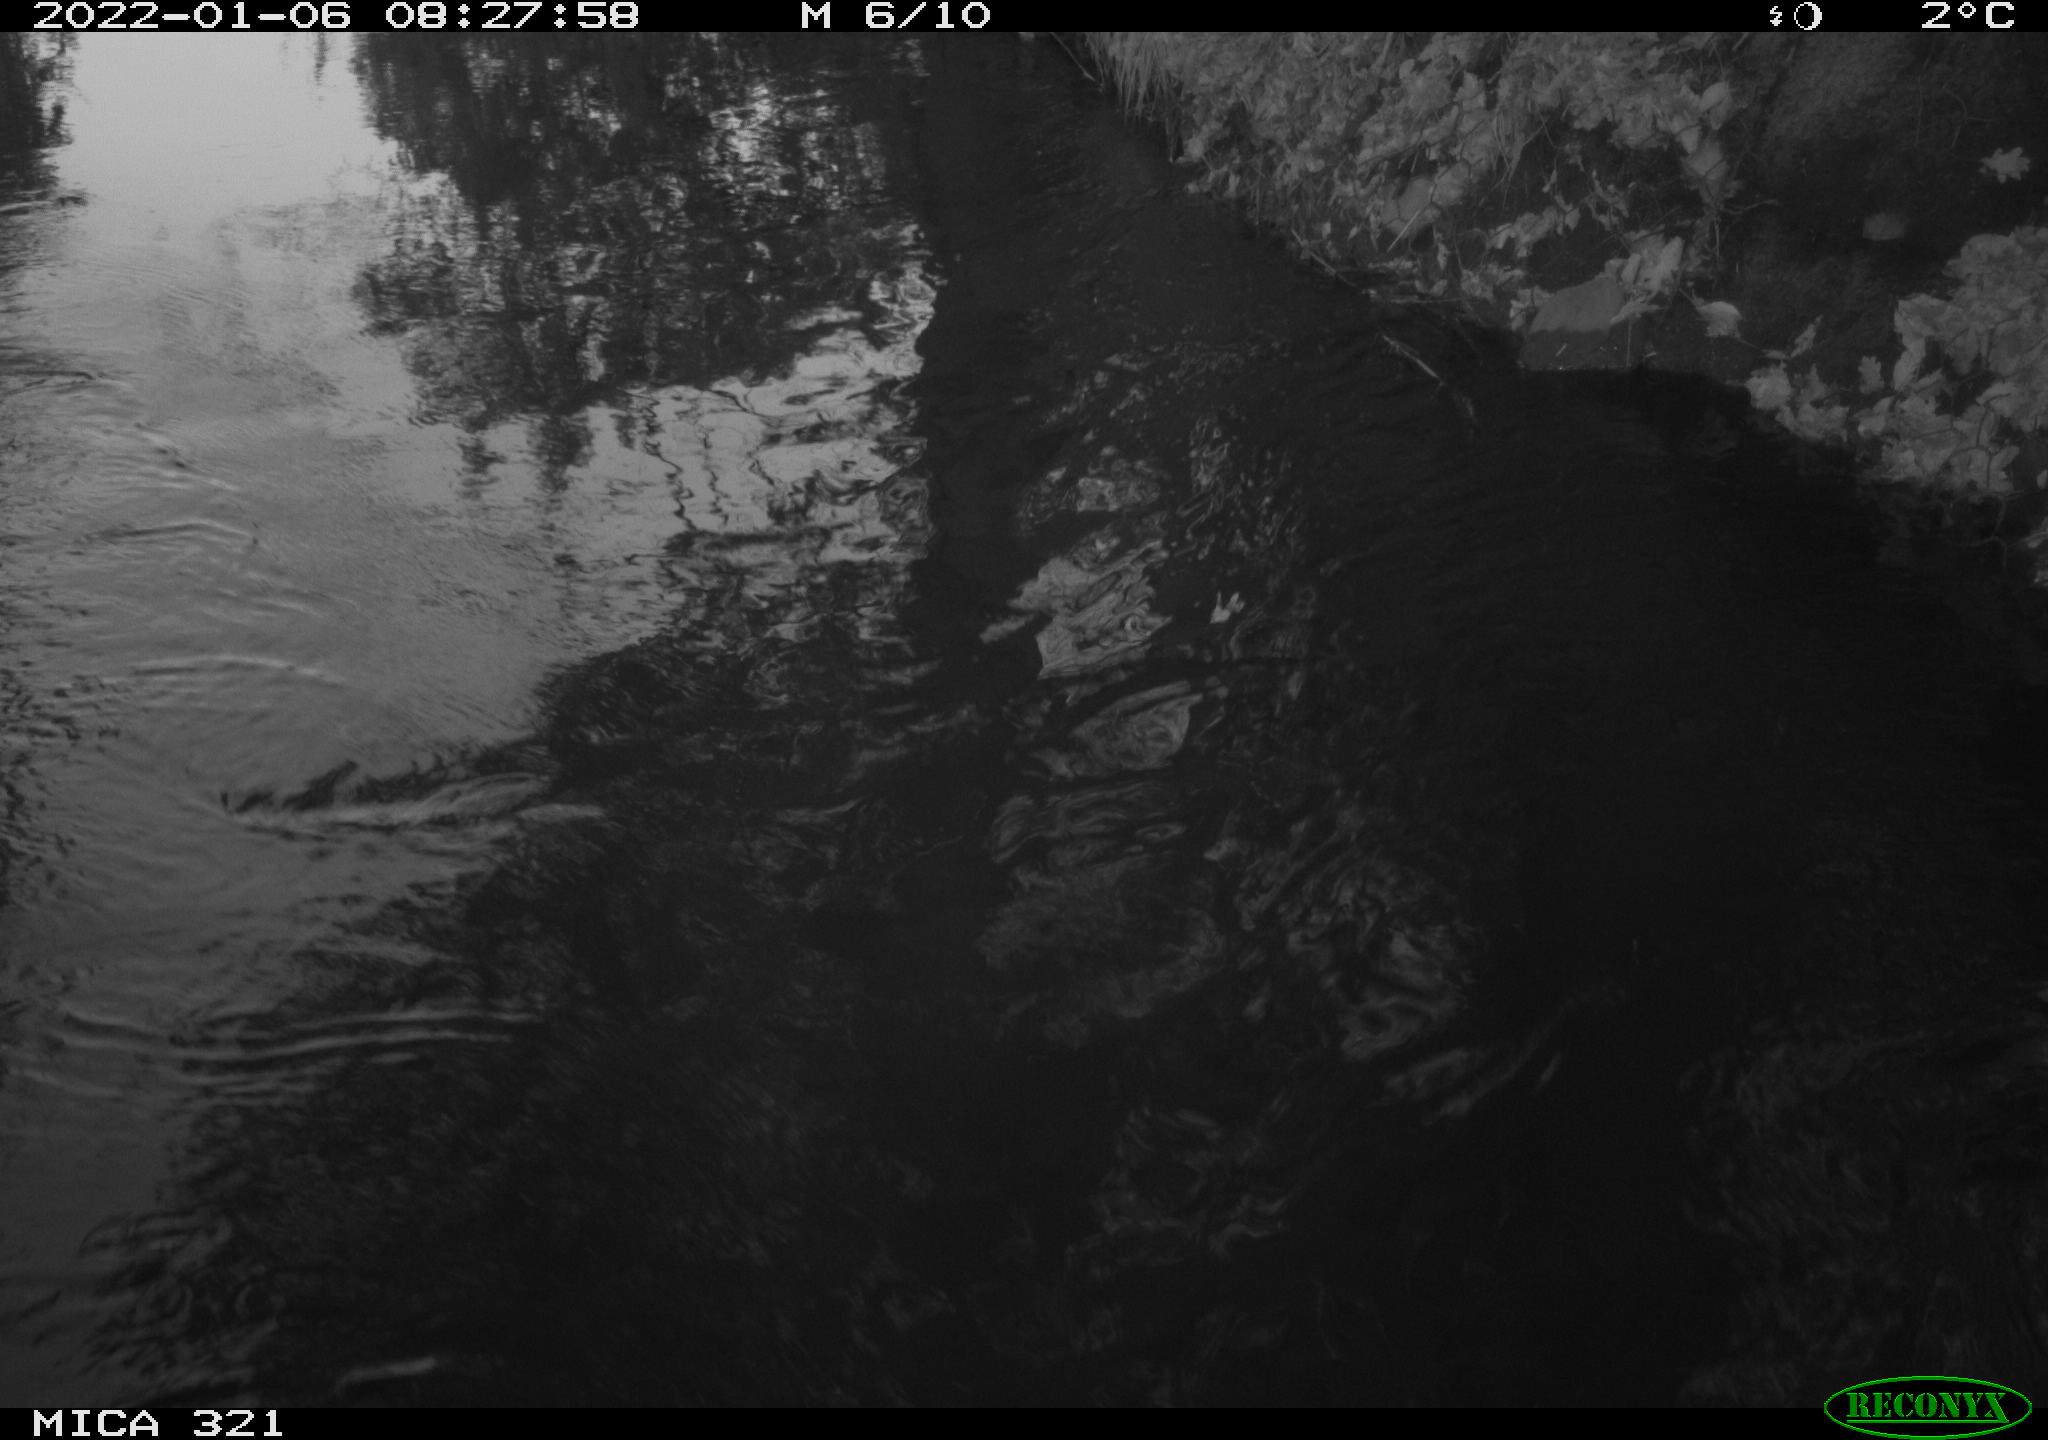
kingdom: Animalia
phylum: Chordata
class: Aves
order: Anseriformes
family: Anatidae
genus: Anas
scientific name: Anas
